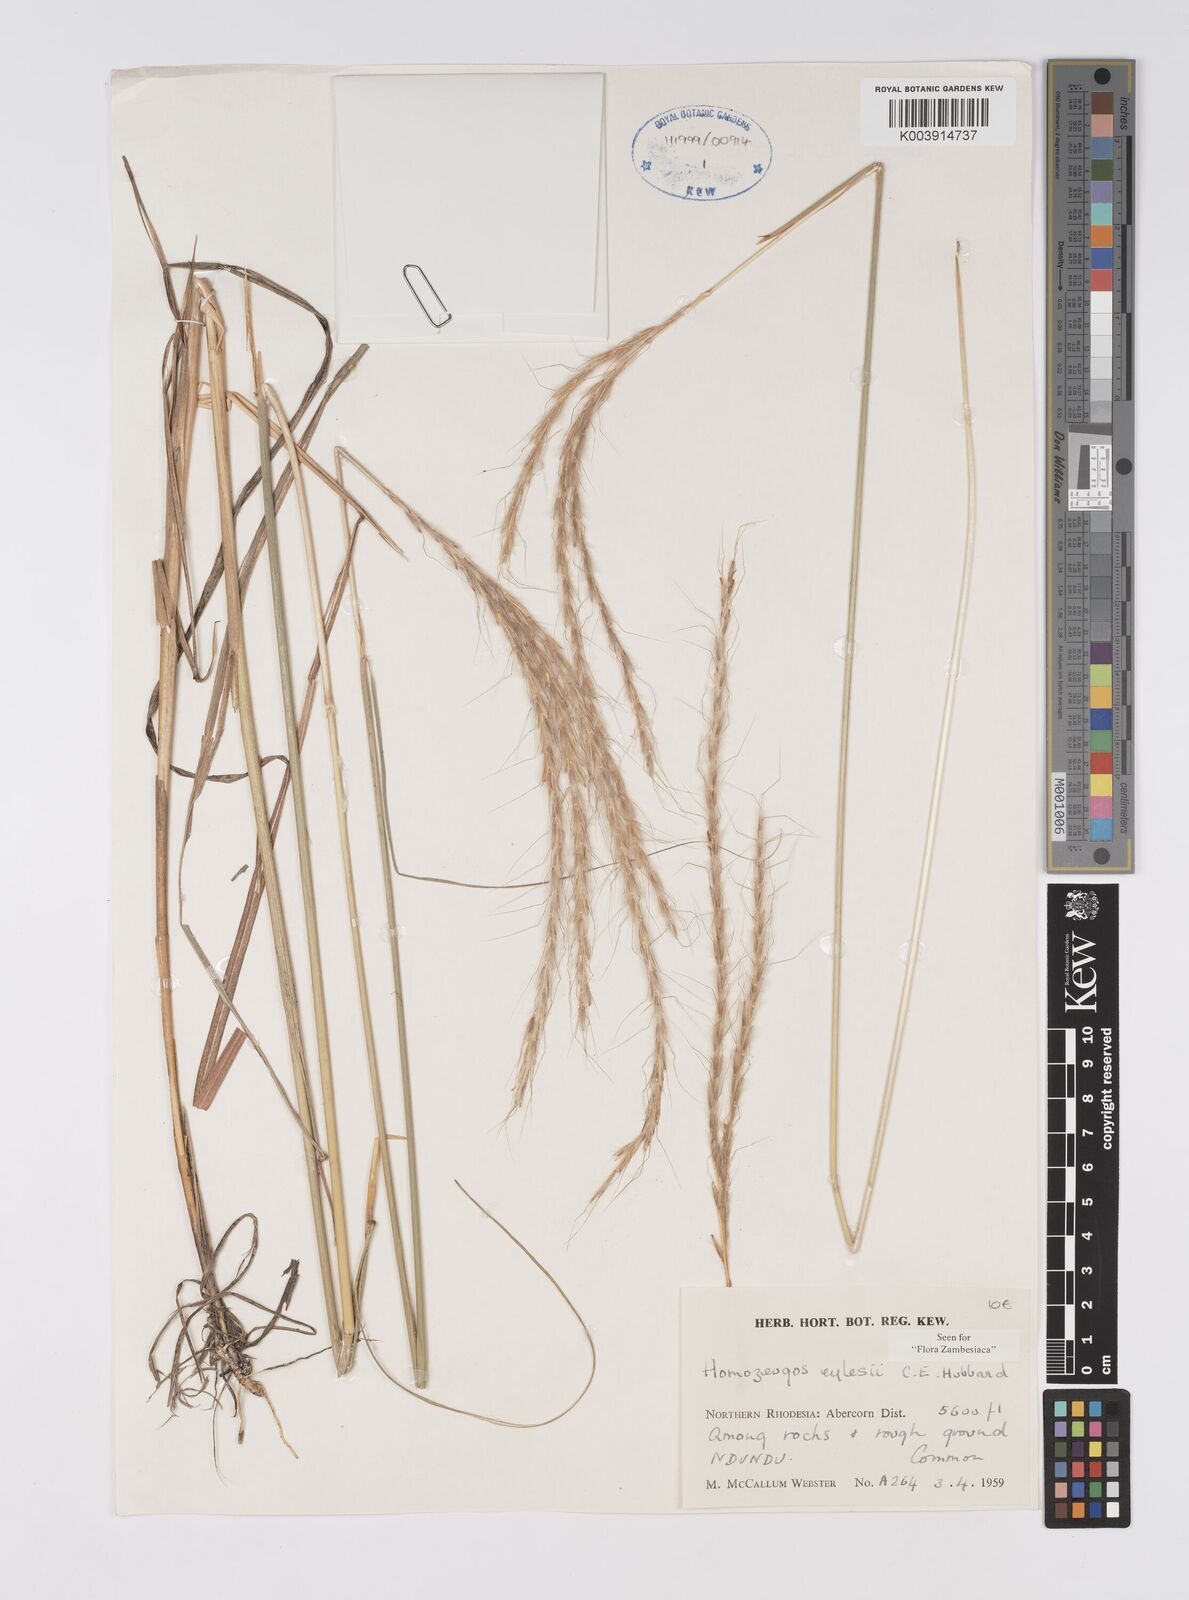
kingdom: Plantae
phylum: Tracheophyta
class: Liliopsida
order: Poales
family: Poaceae
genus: Homozeugos
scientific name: Homozeugos eylesii
